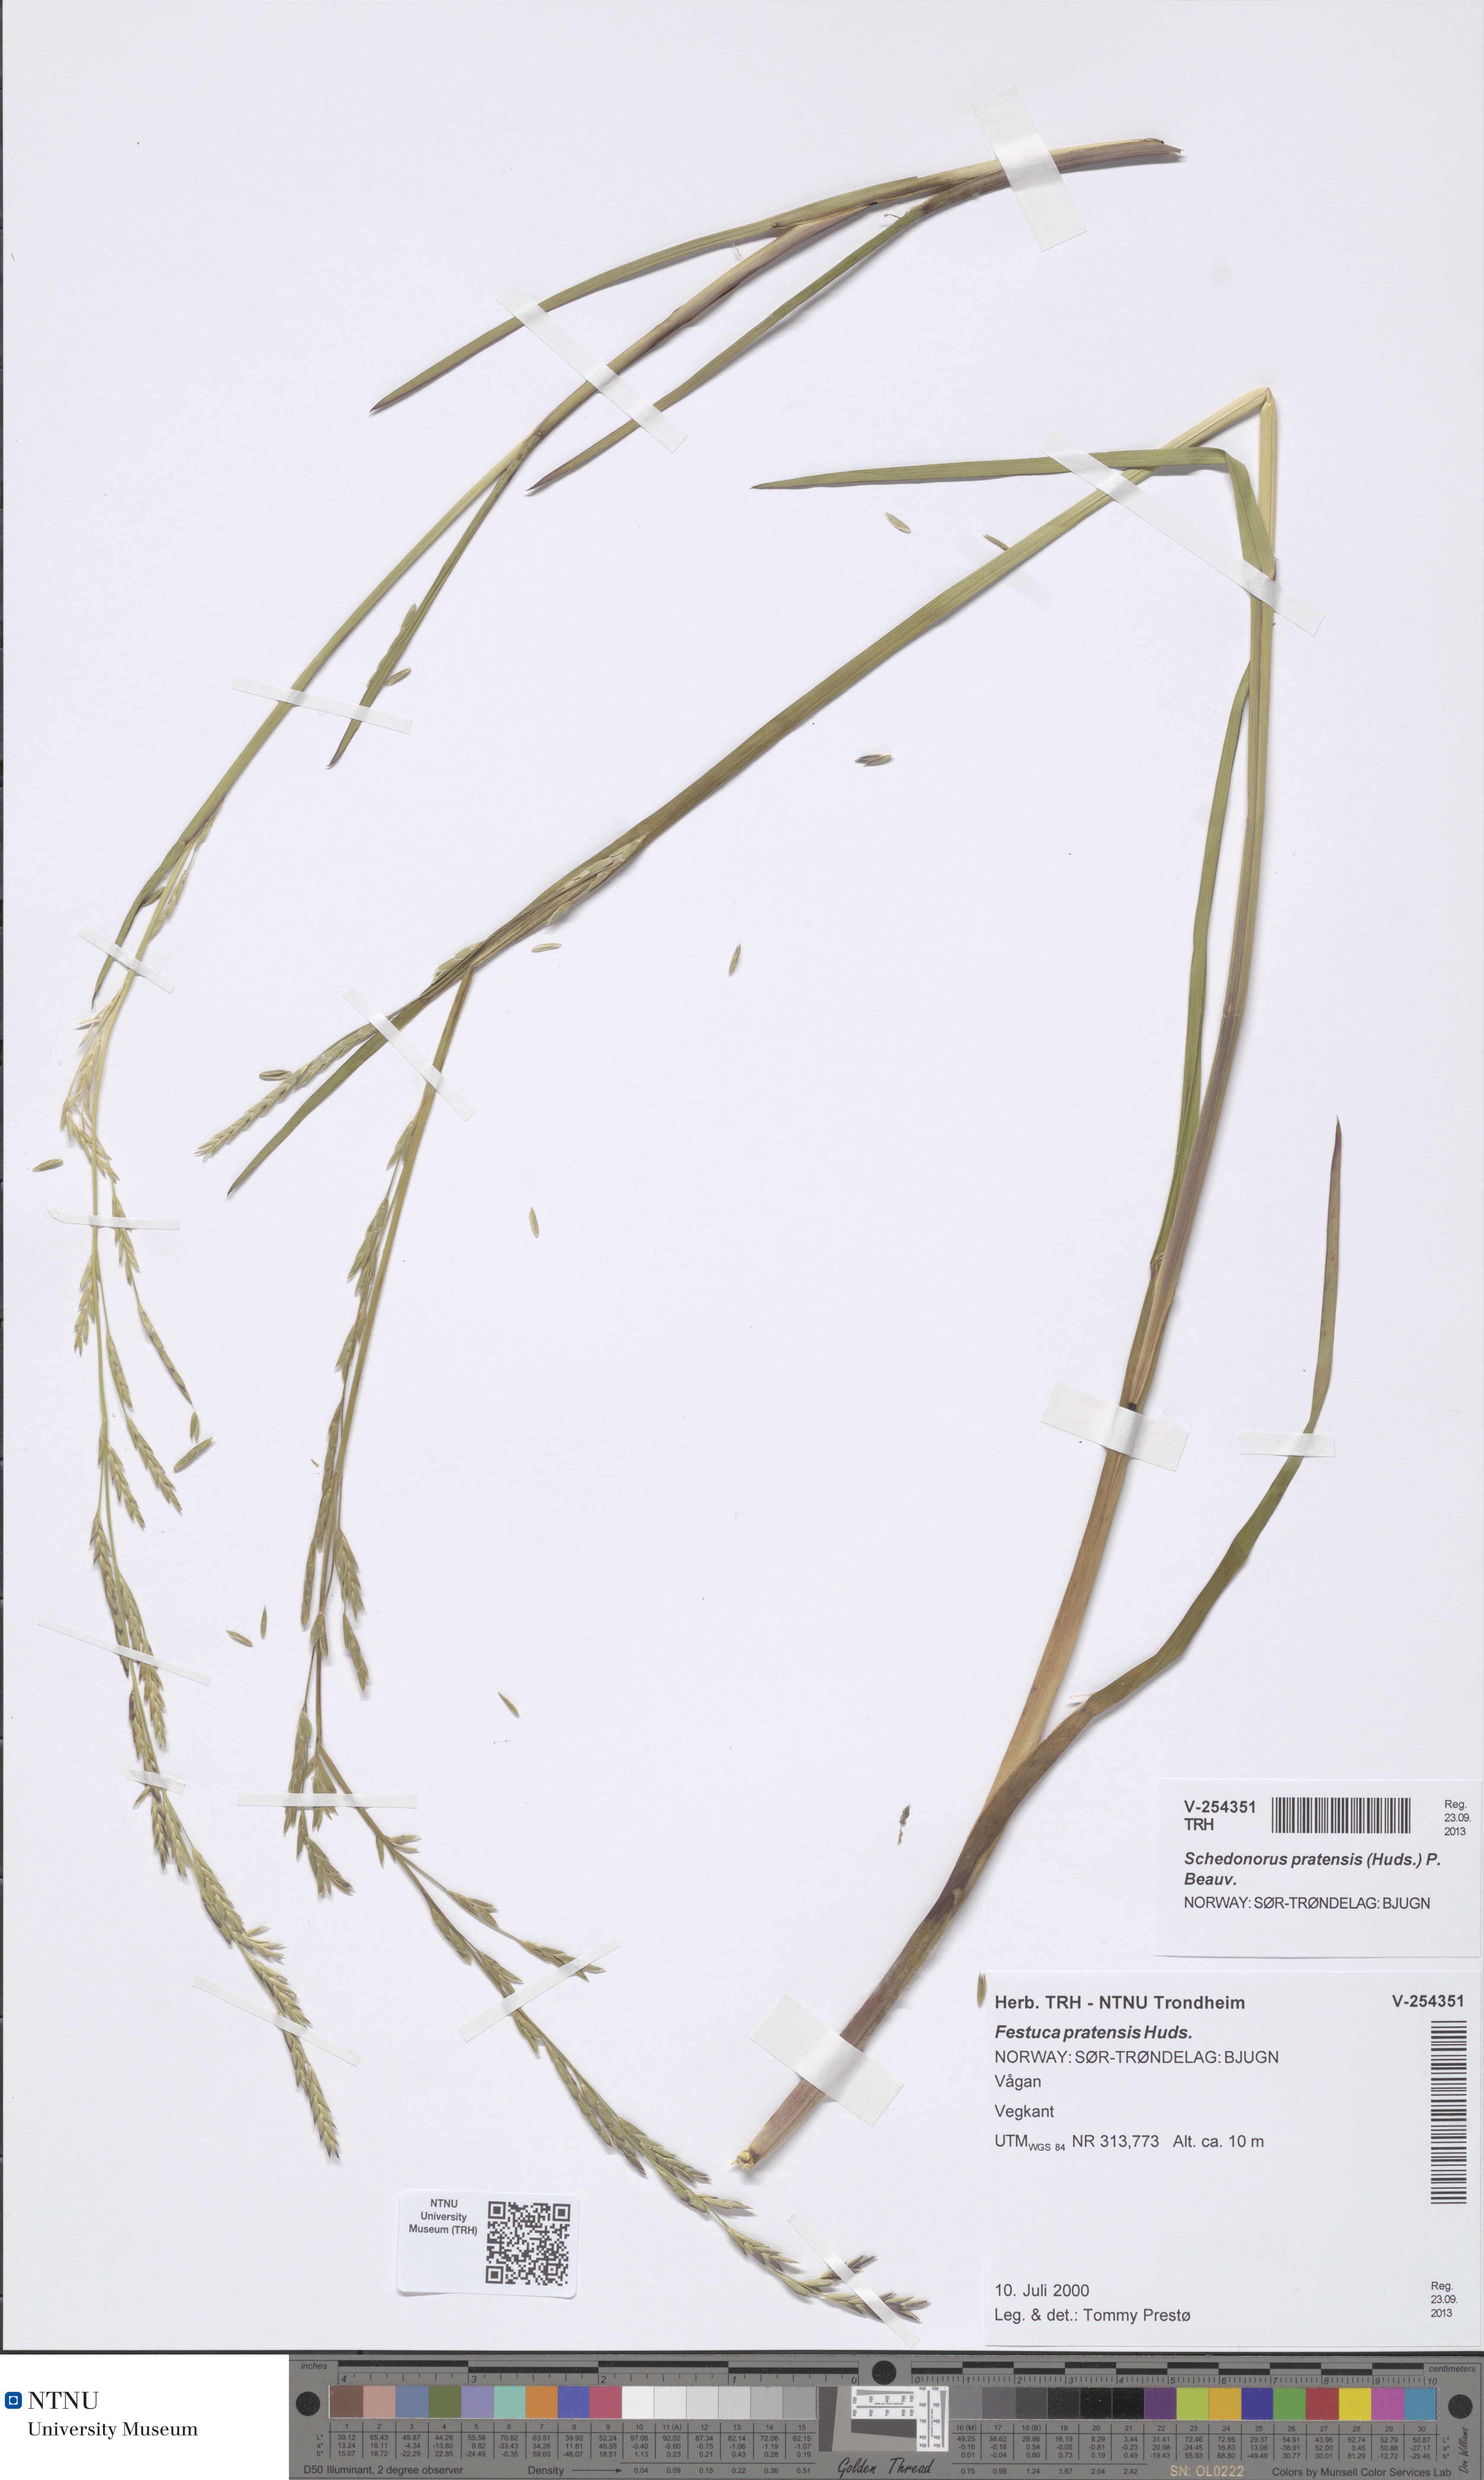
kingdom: Plantae
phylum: Tracheophyta
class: Liliopsida
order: Poales
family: Poaceae
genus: Lolium
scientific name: Lolium pratense
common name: Dover grass
